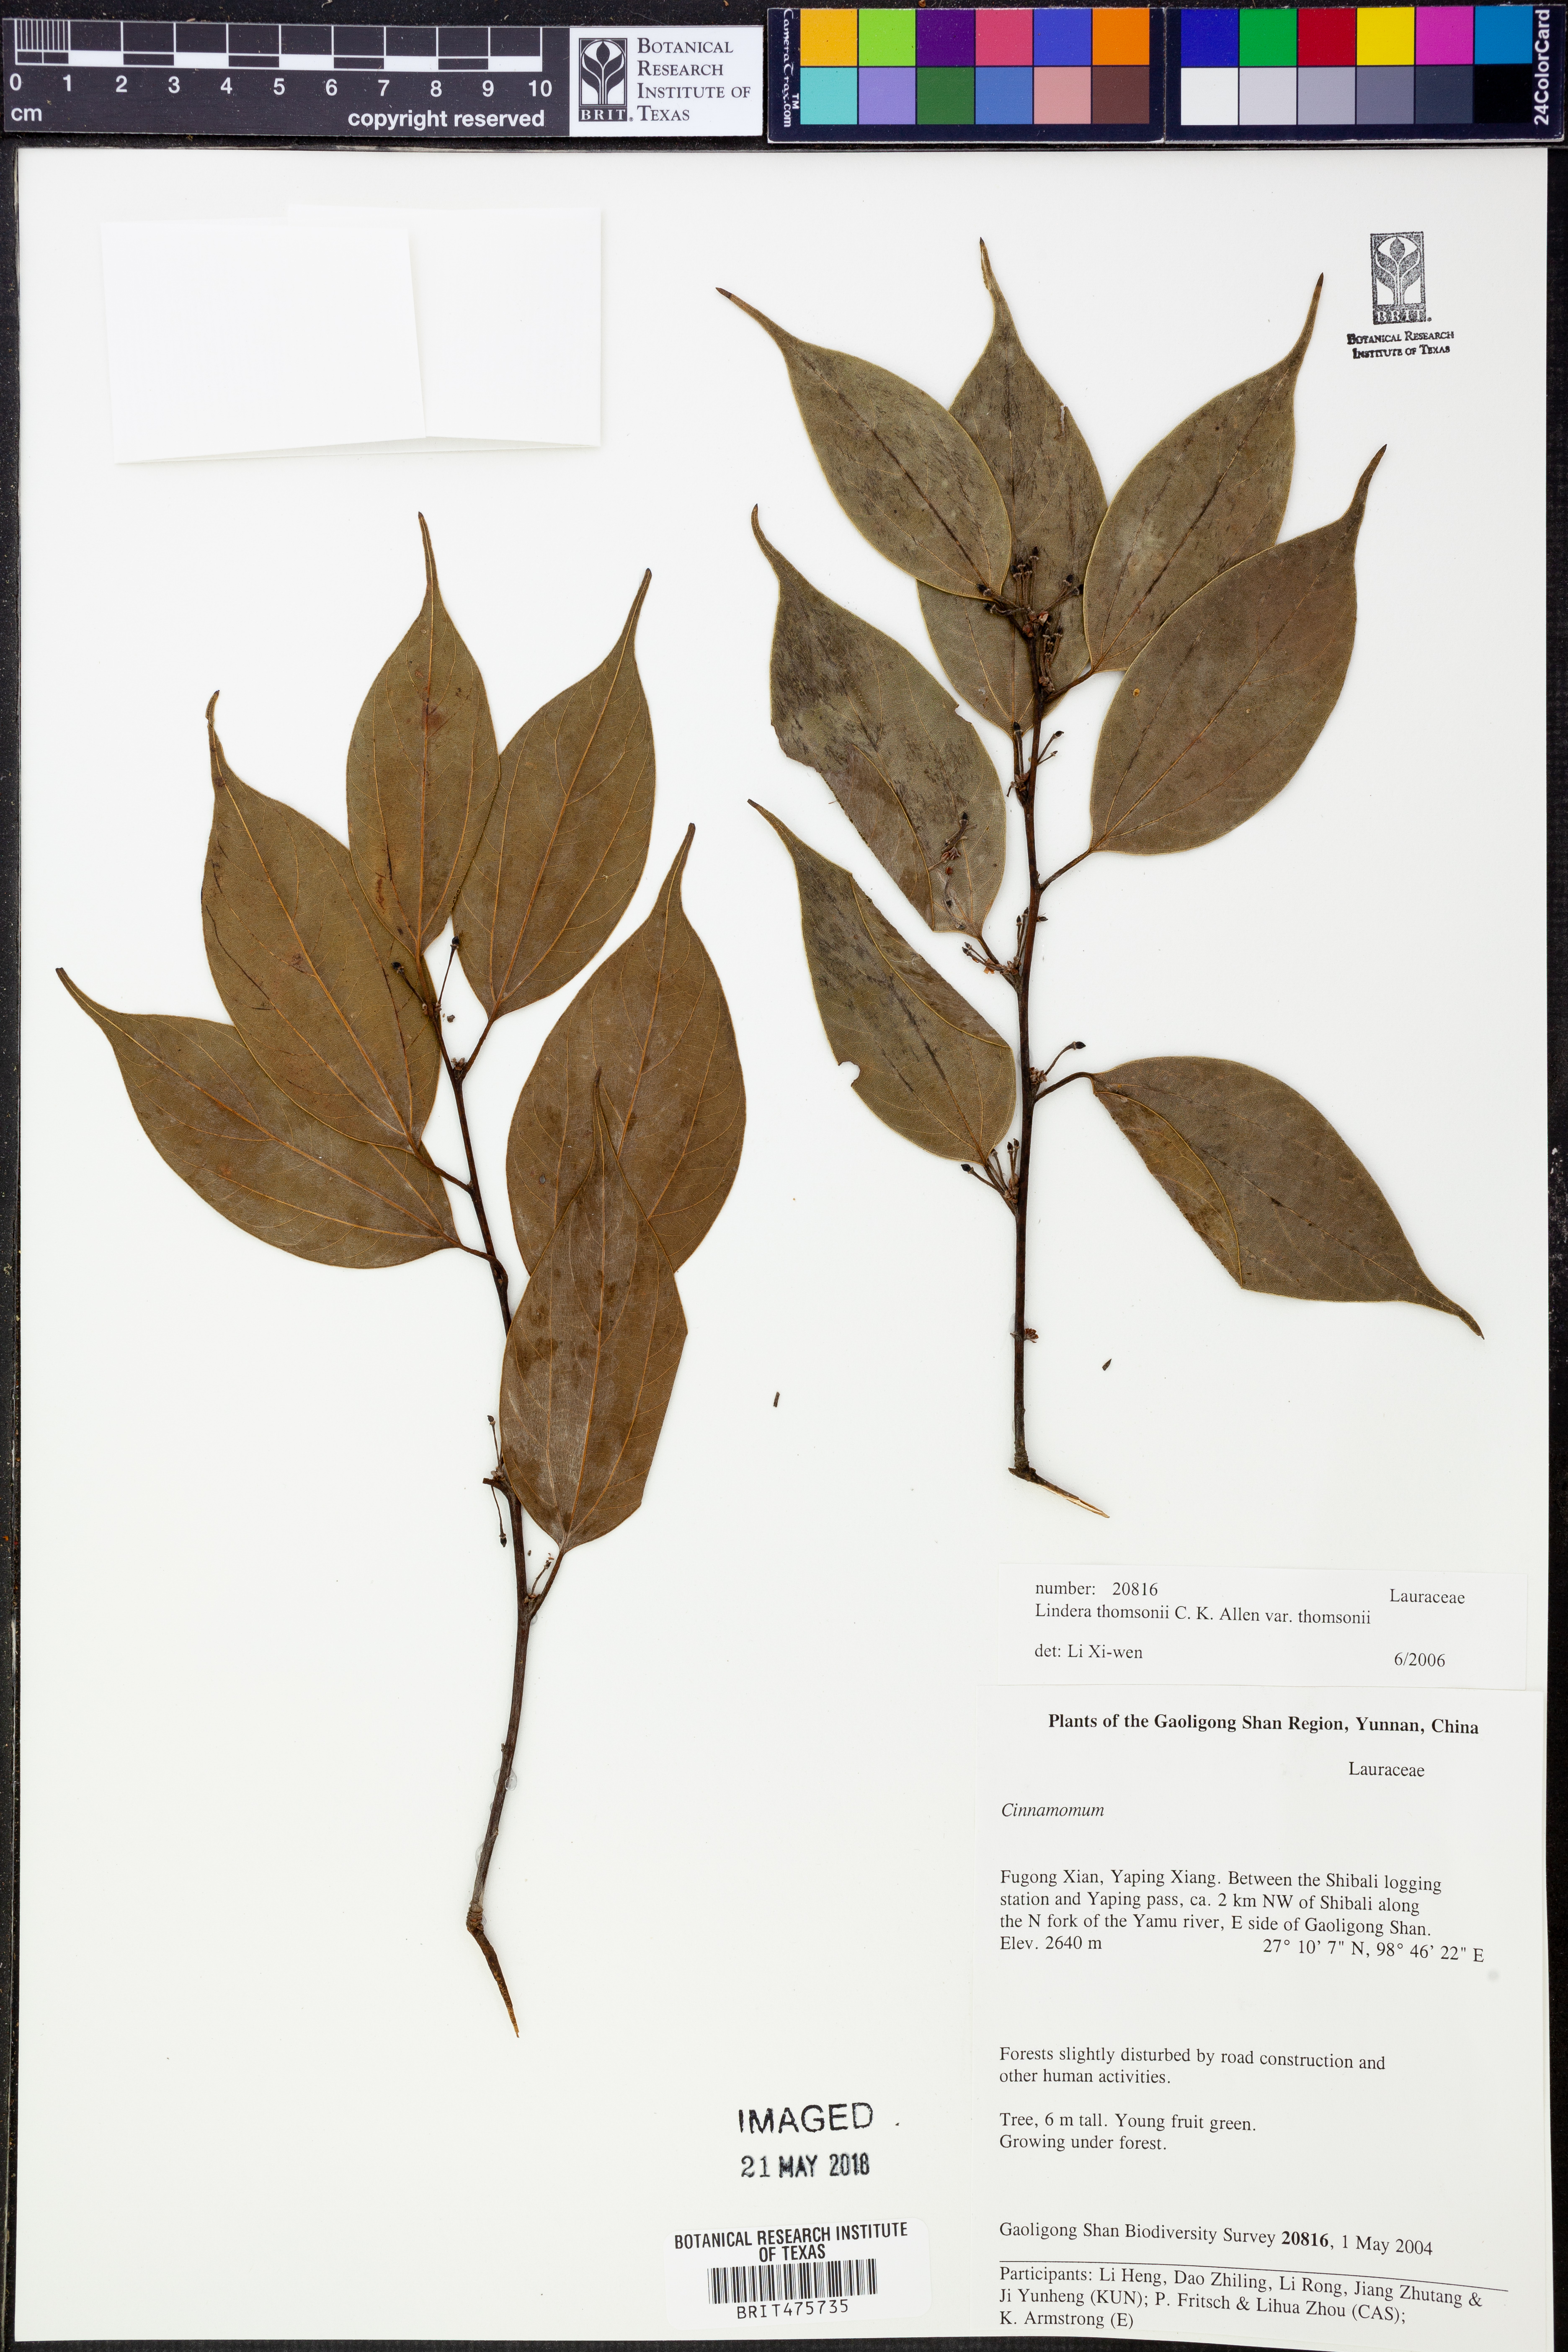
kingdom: Plantae
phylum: Tracheophyta
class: Magnoliopsida
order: Laurales
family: Lauraceae
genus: Lindera
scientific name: Lindera thomsonii
